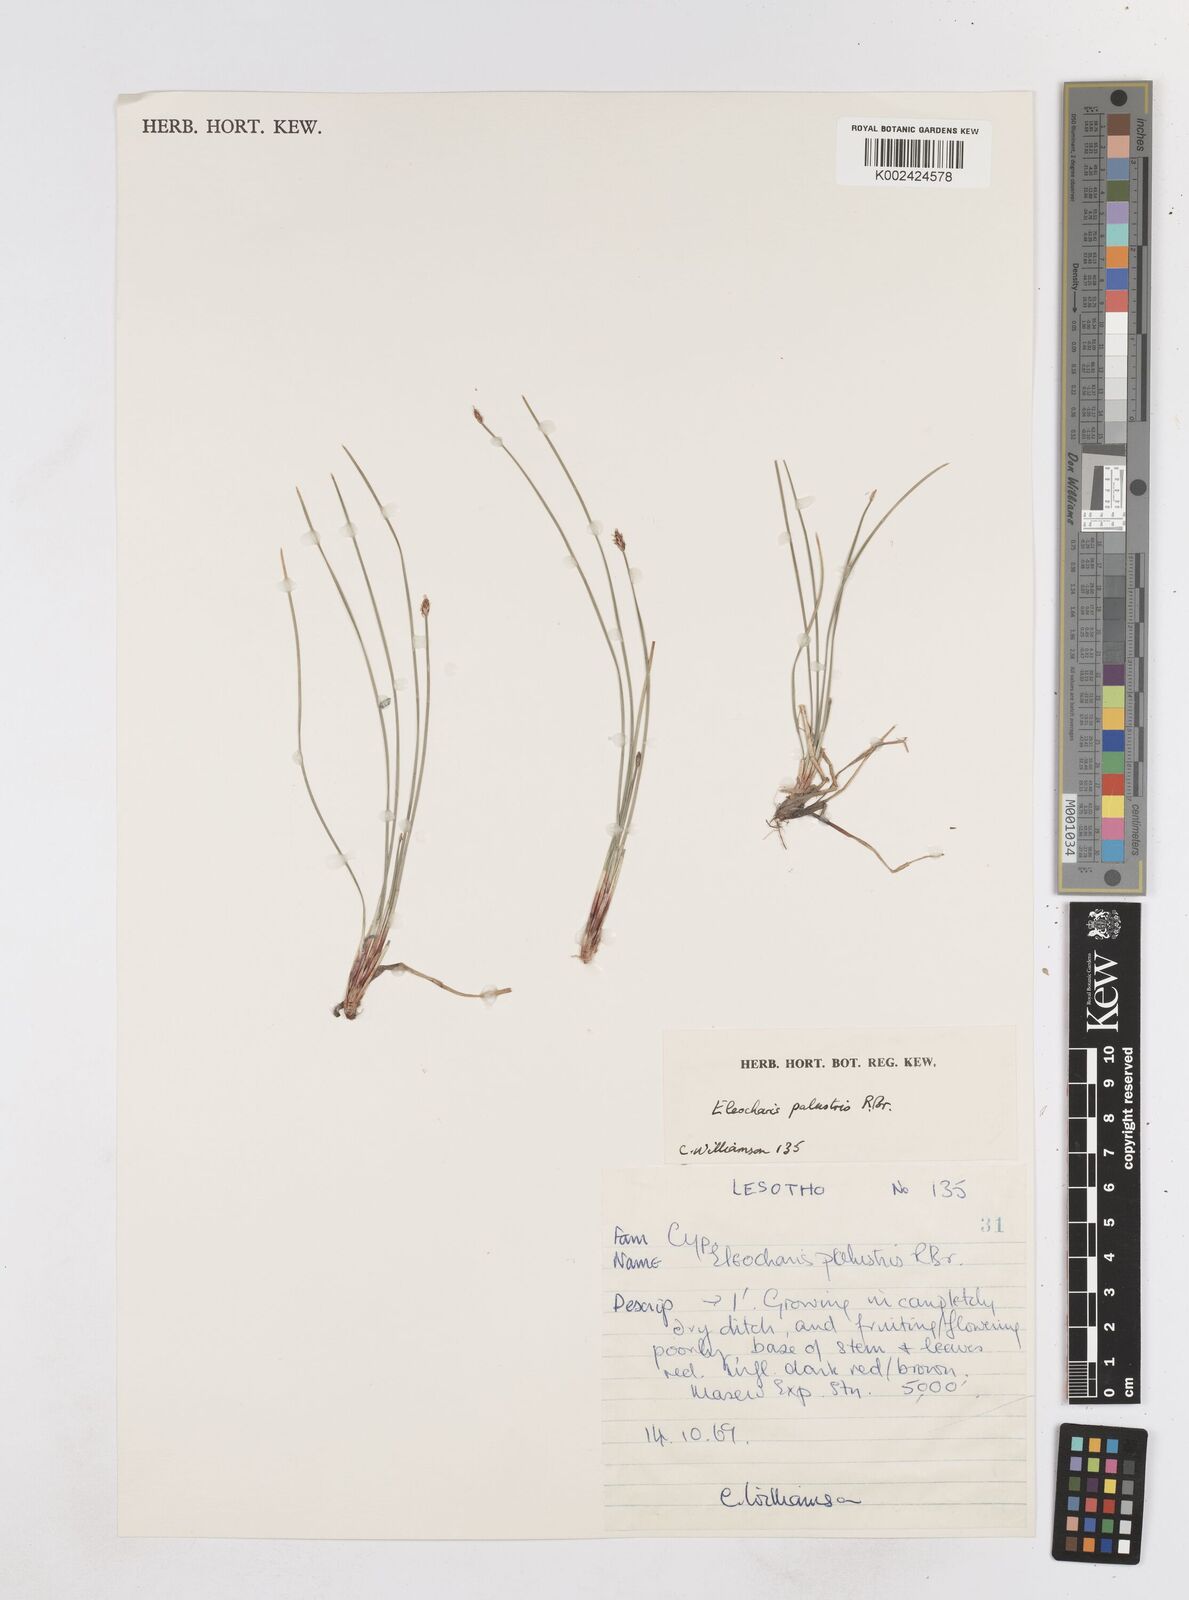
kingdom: Plantae
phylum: Tracheophyta
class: Liliopsida
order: Poales
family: Cyperaceae
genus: Eleocharis
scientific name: Eleocharis palustris
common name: Common spike-rush
